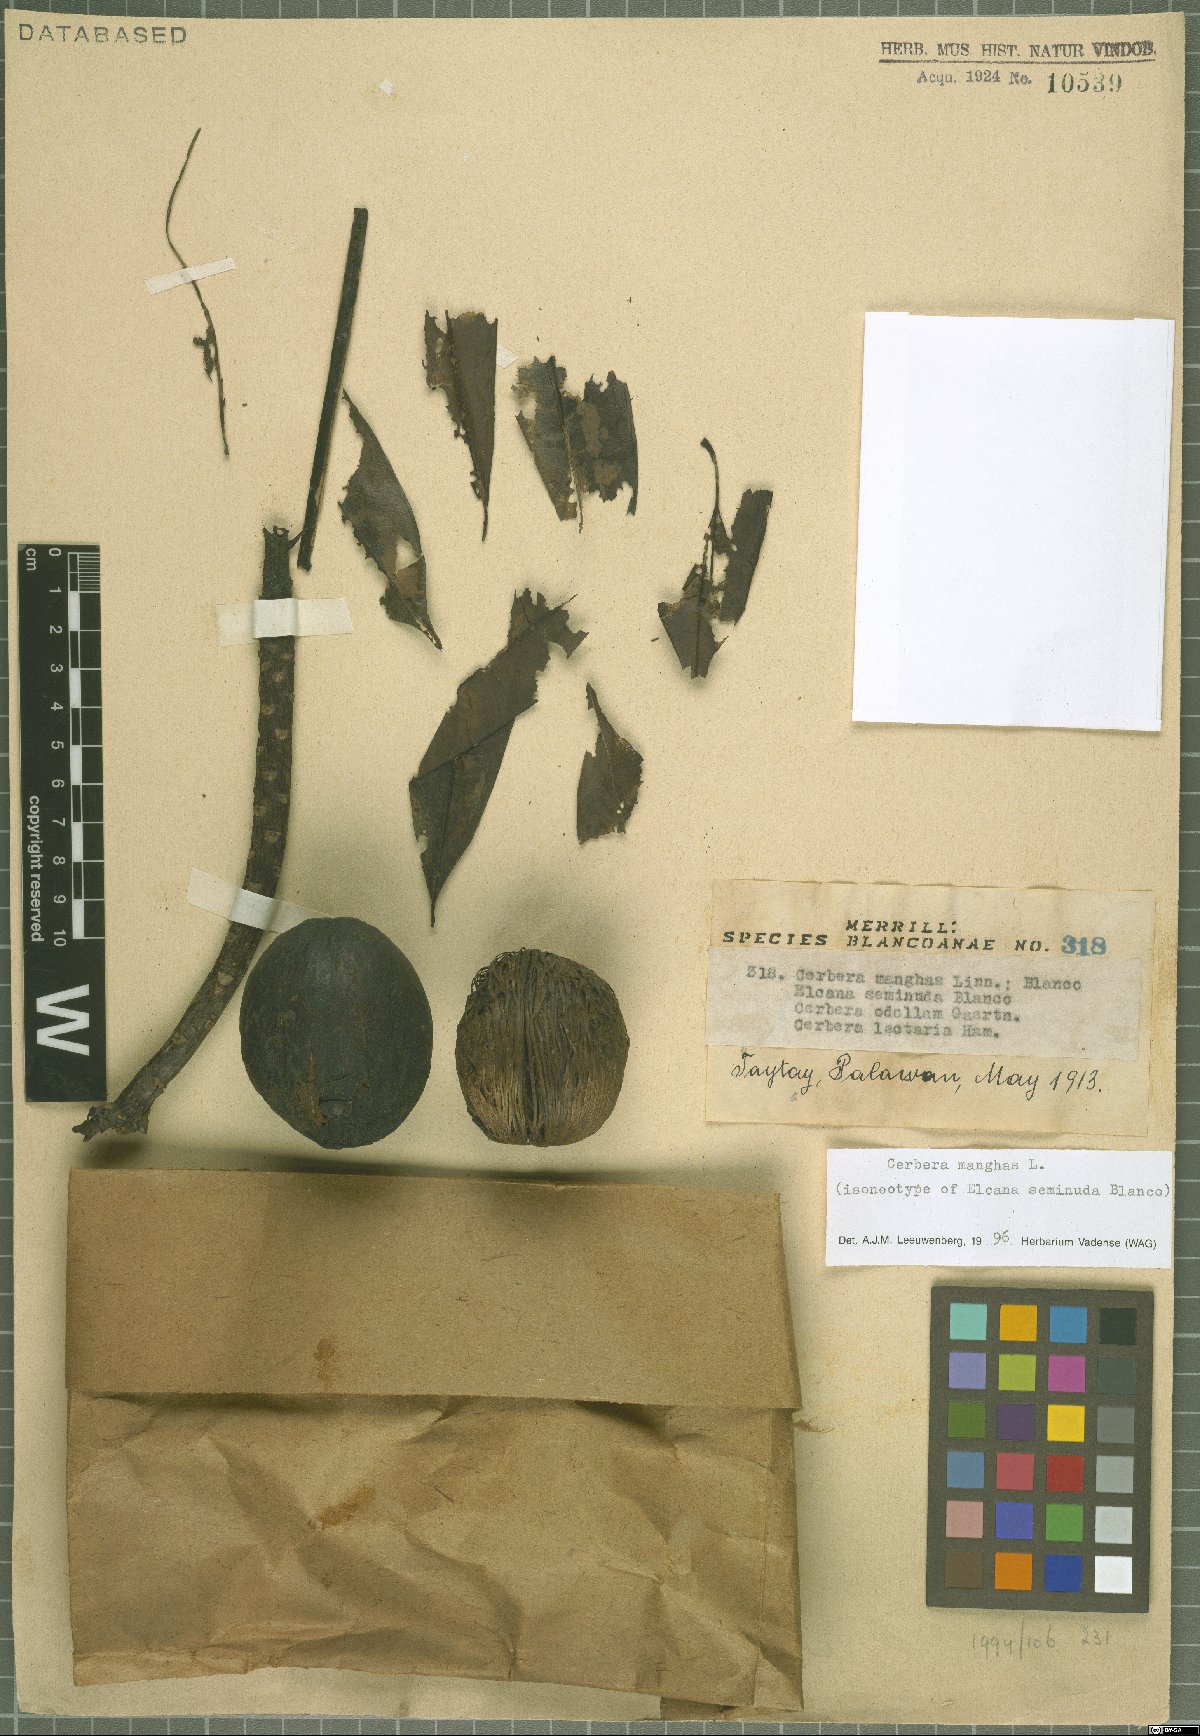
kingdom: Plantae
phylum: Tracheophyta
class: Magnoliopsida
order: Gentianales
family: Apocynaceae
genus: Cerbera
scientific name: Cerbera manghas
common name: Reva
